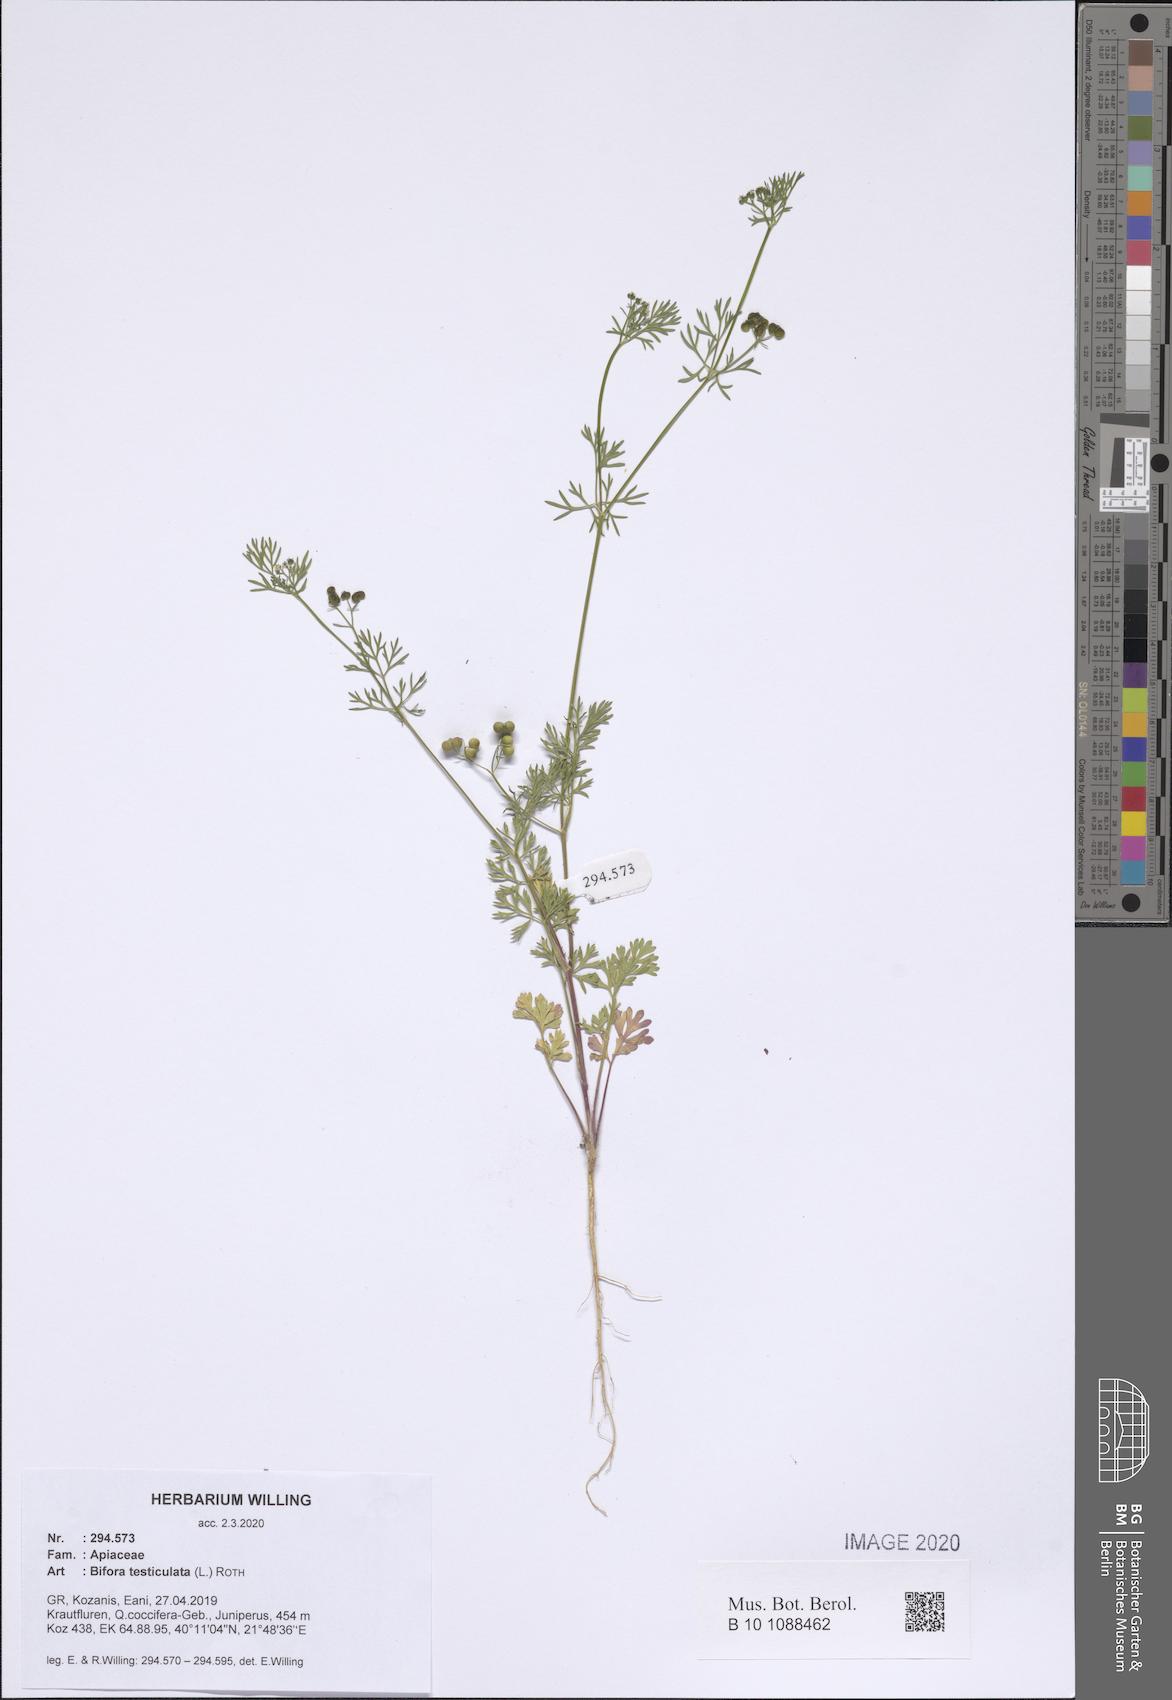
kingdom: Plantae
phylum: Tracheophyta
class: Magnoliopsida
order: Apiales
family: Apiaceae
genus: Bifora
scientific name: Bifora testiculata
